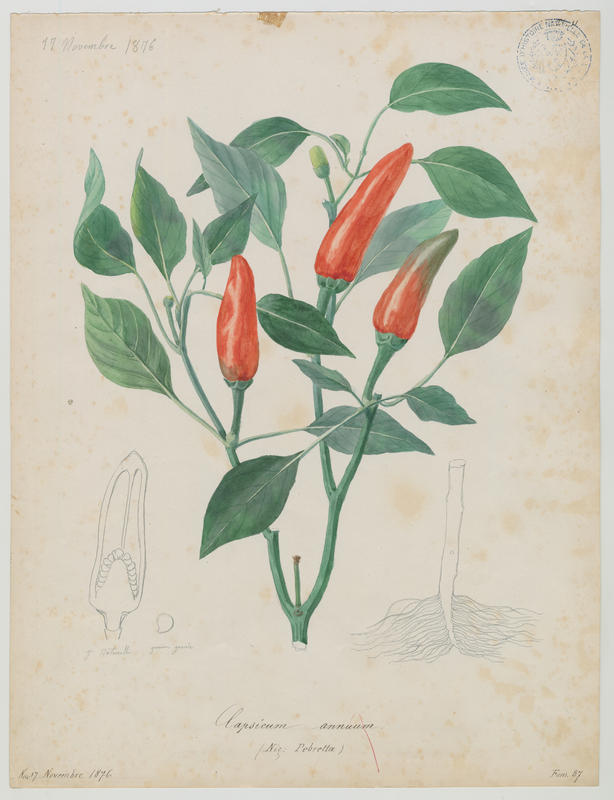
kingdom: Plantae
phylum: Tracheophyta
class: Magnoliopsida
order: Solanales
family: Solanaceae
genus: Capsicum
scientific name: Capsicum annuum
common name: Sweet pepper
